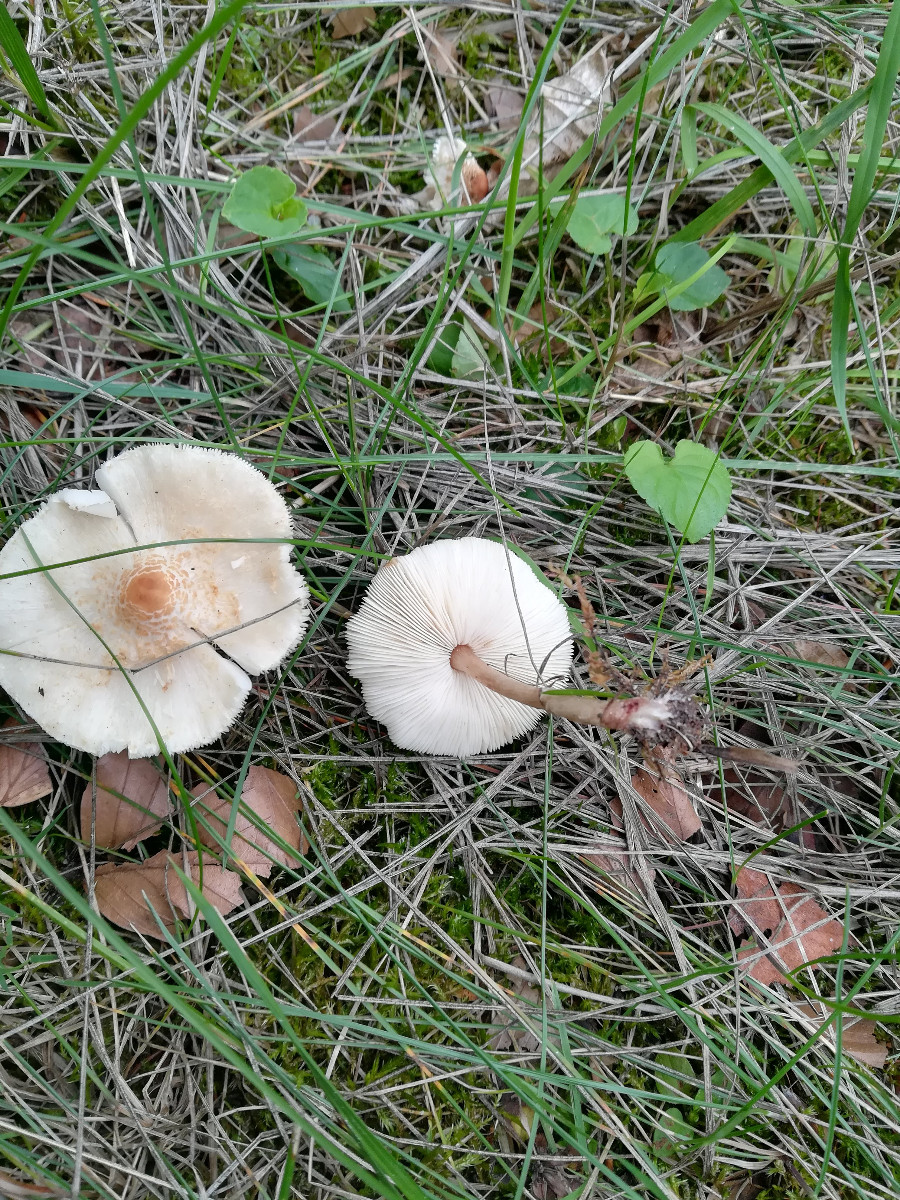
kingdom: Fungi
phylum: Basidiomycota
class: Agaricomycetes
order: Agaricales
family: Agaricaceae
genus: Lepiota
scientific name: Lepiota cristata
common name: stinkende parasolhat
